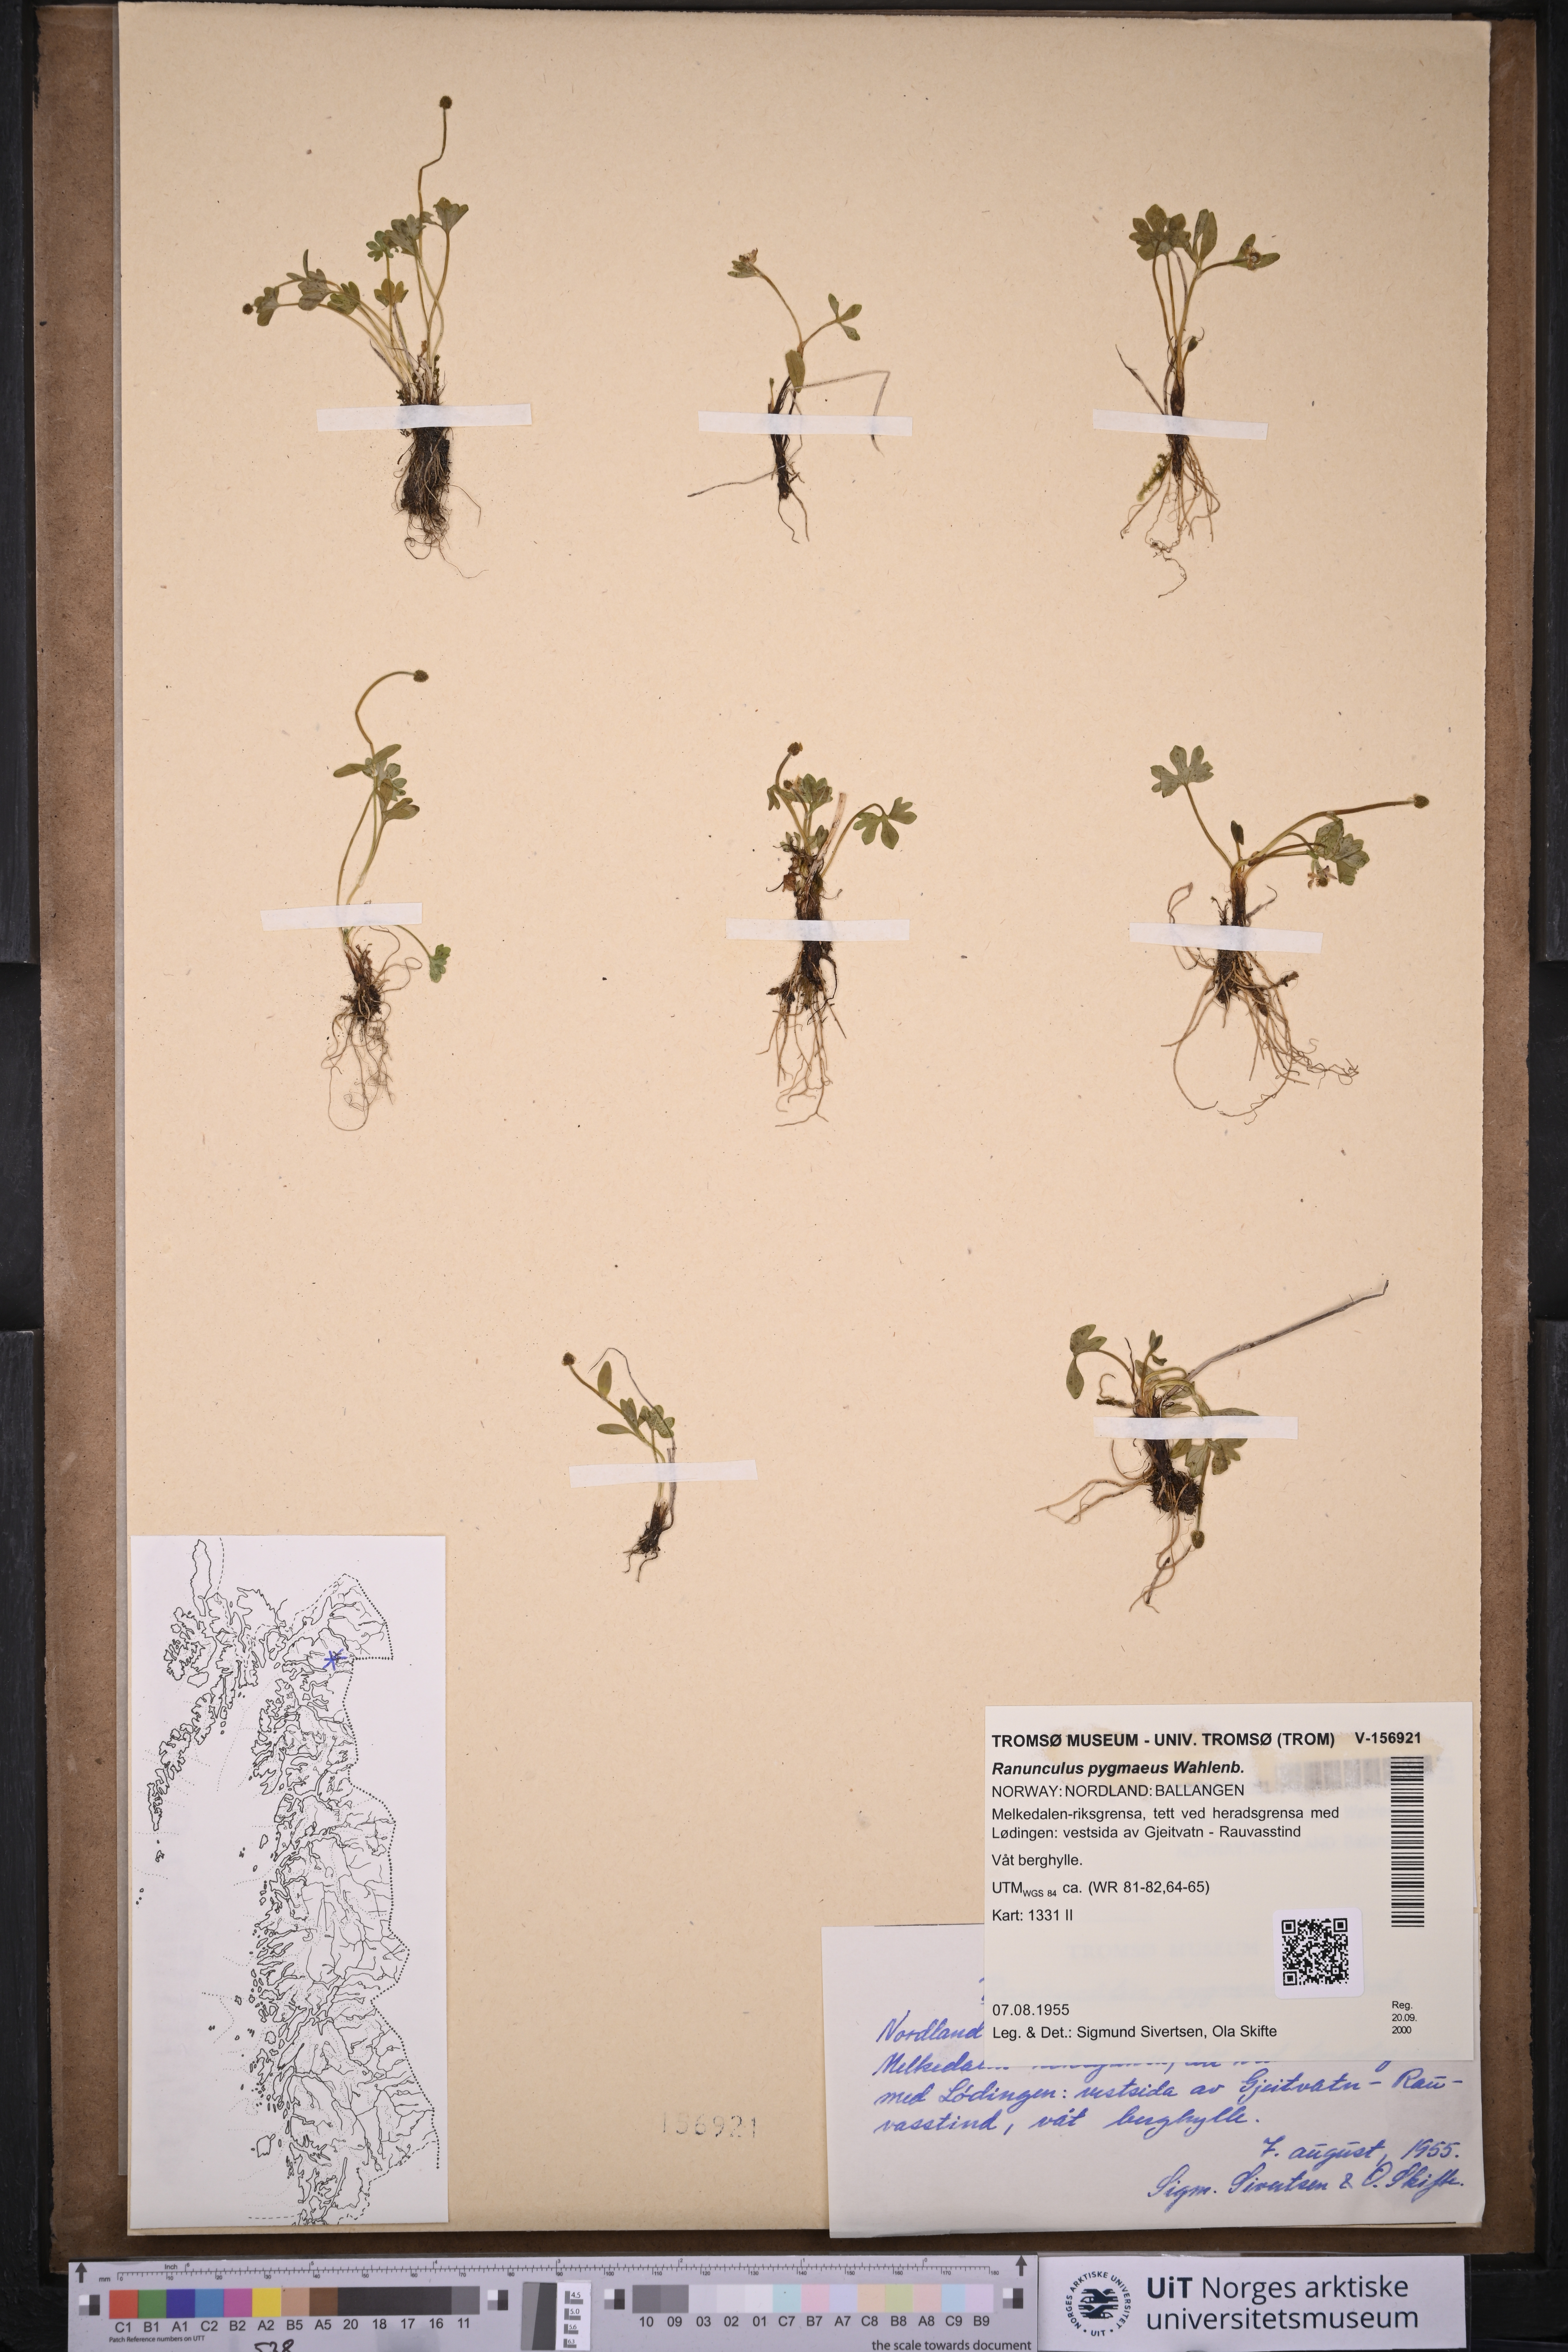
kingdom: Plantae
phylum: Tracheophyta
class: Magnoliopsida
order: Ranunculales
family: Ranunculaceae
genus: Ranunculus
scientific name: Ranunculus pygmaeus
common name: Dwarf buttercup
